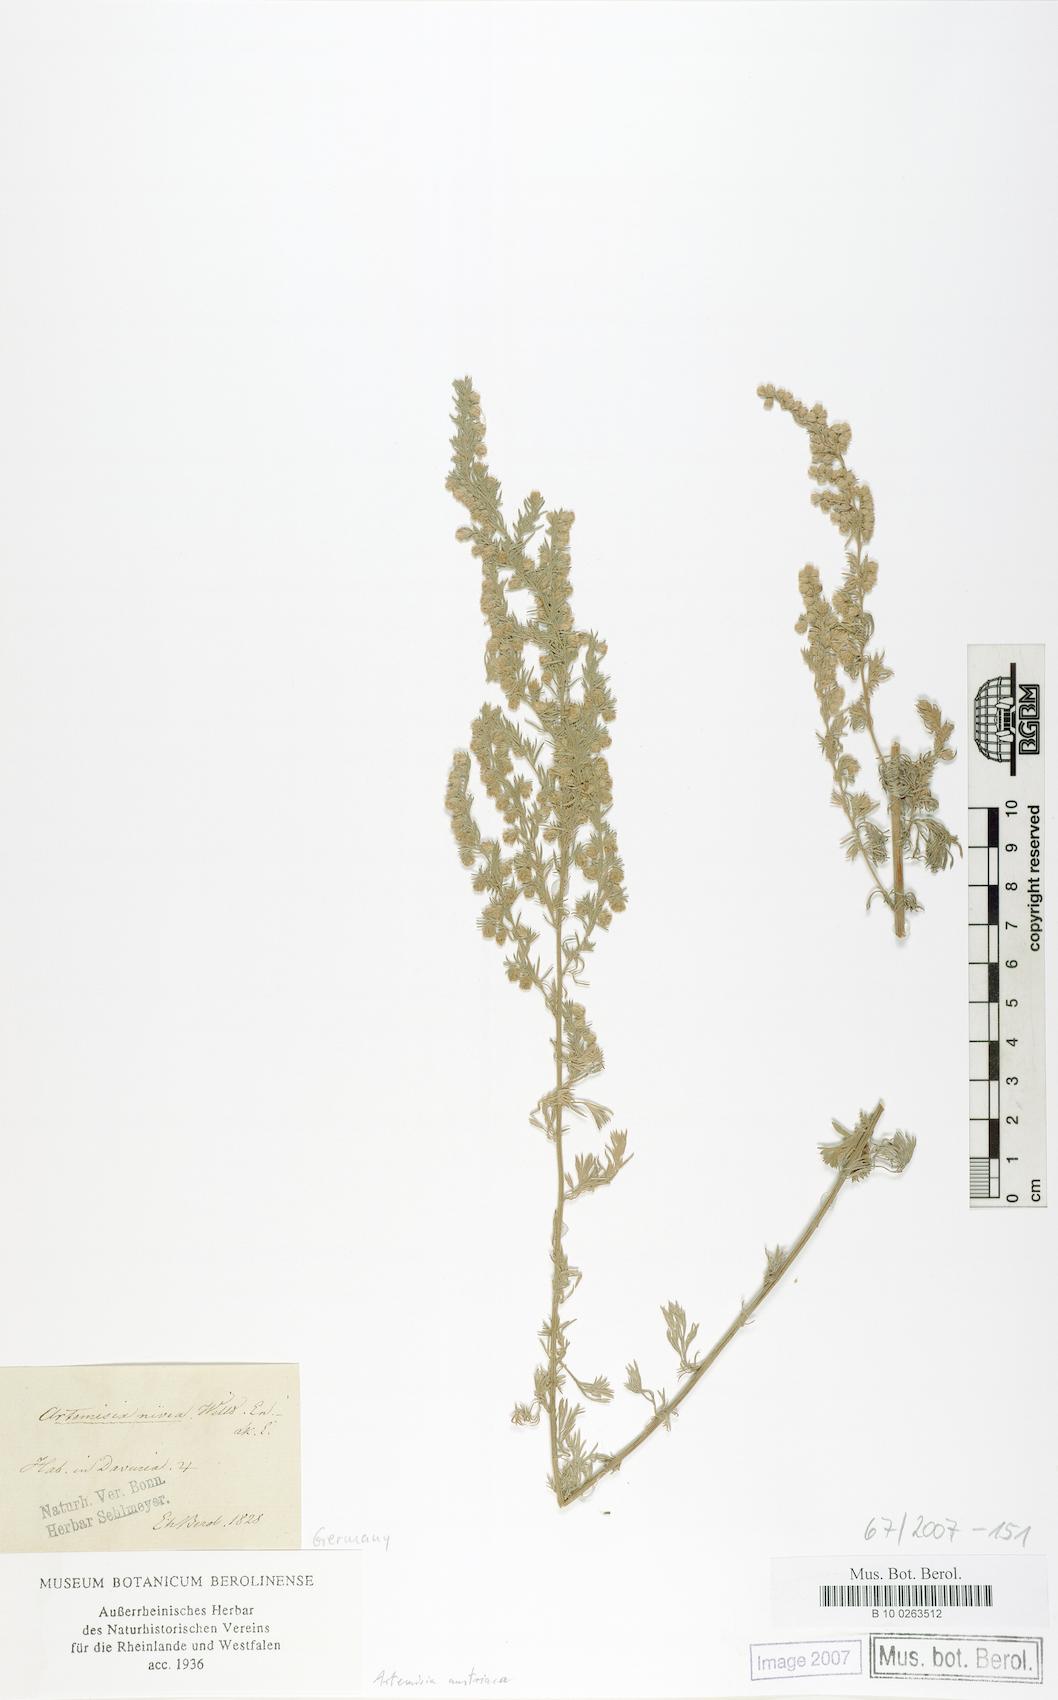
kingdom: Plantae
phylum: Tracheophyta
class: Magnoliopsida
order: Asterales
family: Asteraceae
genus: Artemisia
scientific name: Artemisia austriaca
